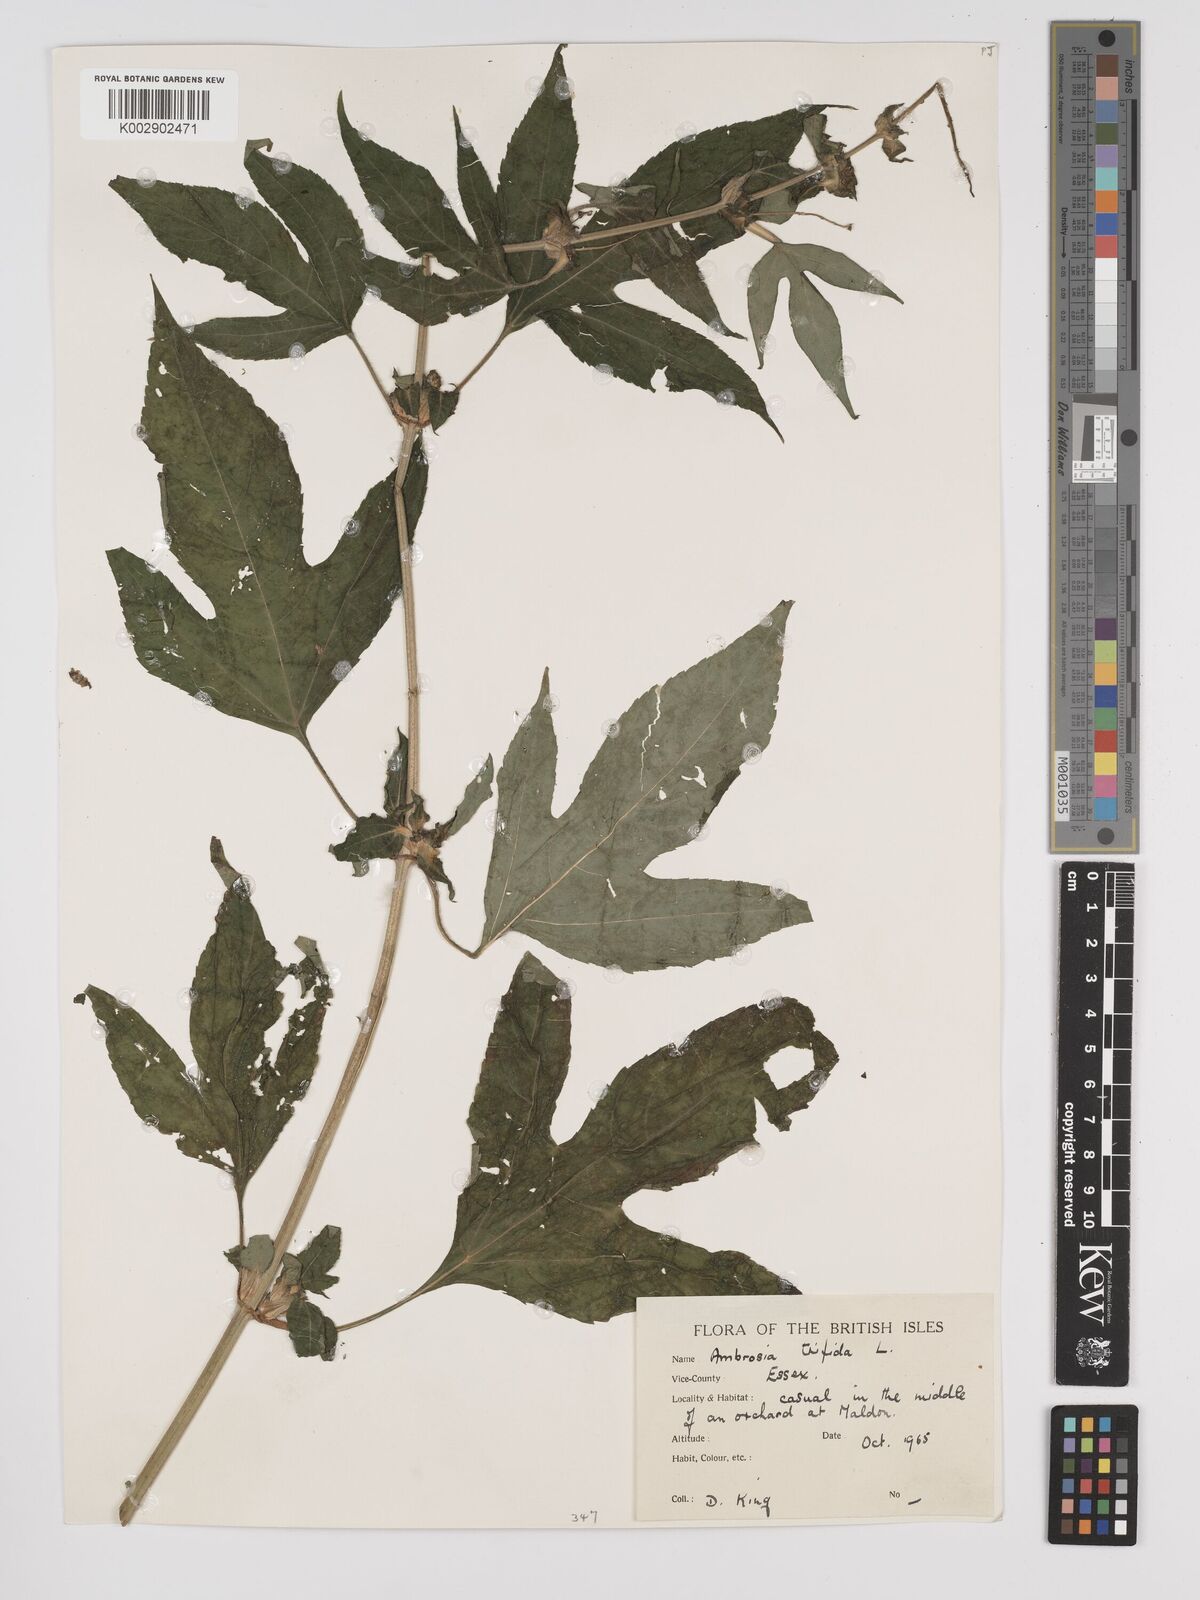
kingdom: Plantae
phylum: Tracheophyta
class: Magnoliopsida
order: Asterales
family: Asteraceae
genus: Ambrosia
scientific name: Ambrosia trifida
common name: Giant ragweed
